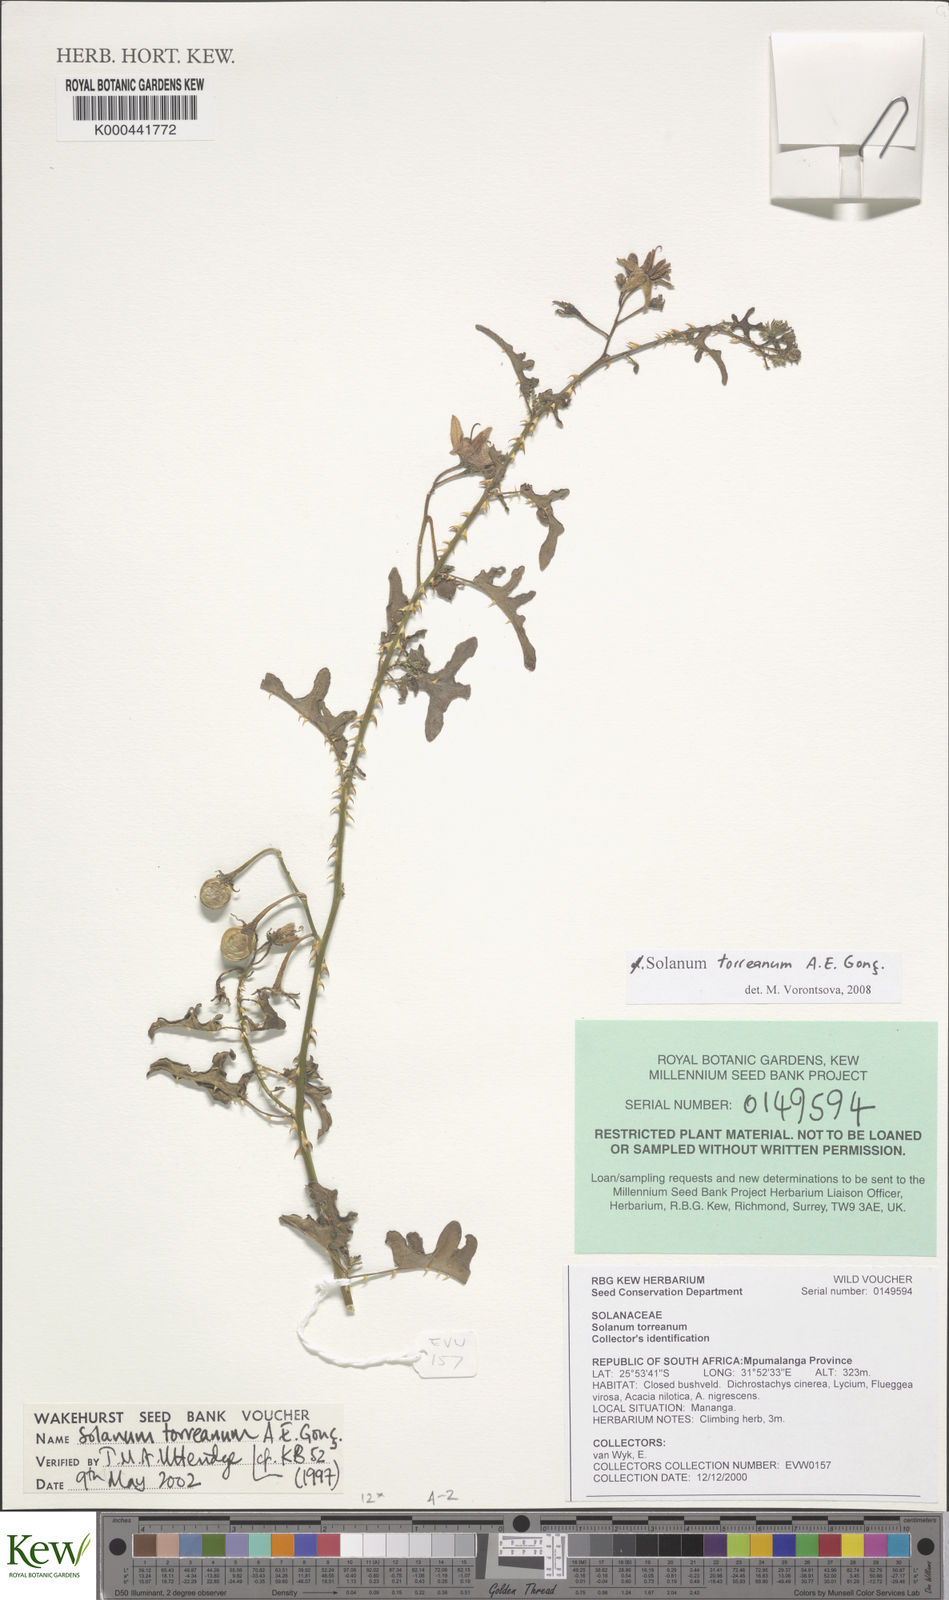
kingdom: Plantae
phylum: Tracheophyta
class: Magnoliopsida
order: Solanales
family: Solanaceae
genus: Solanum
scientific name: Solanum
